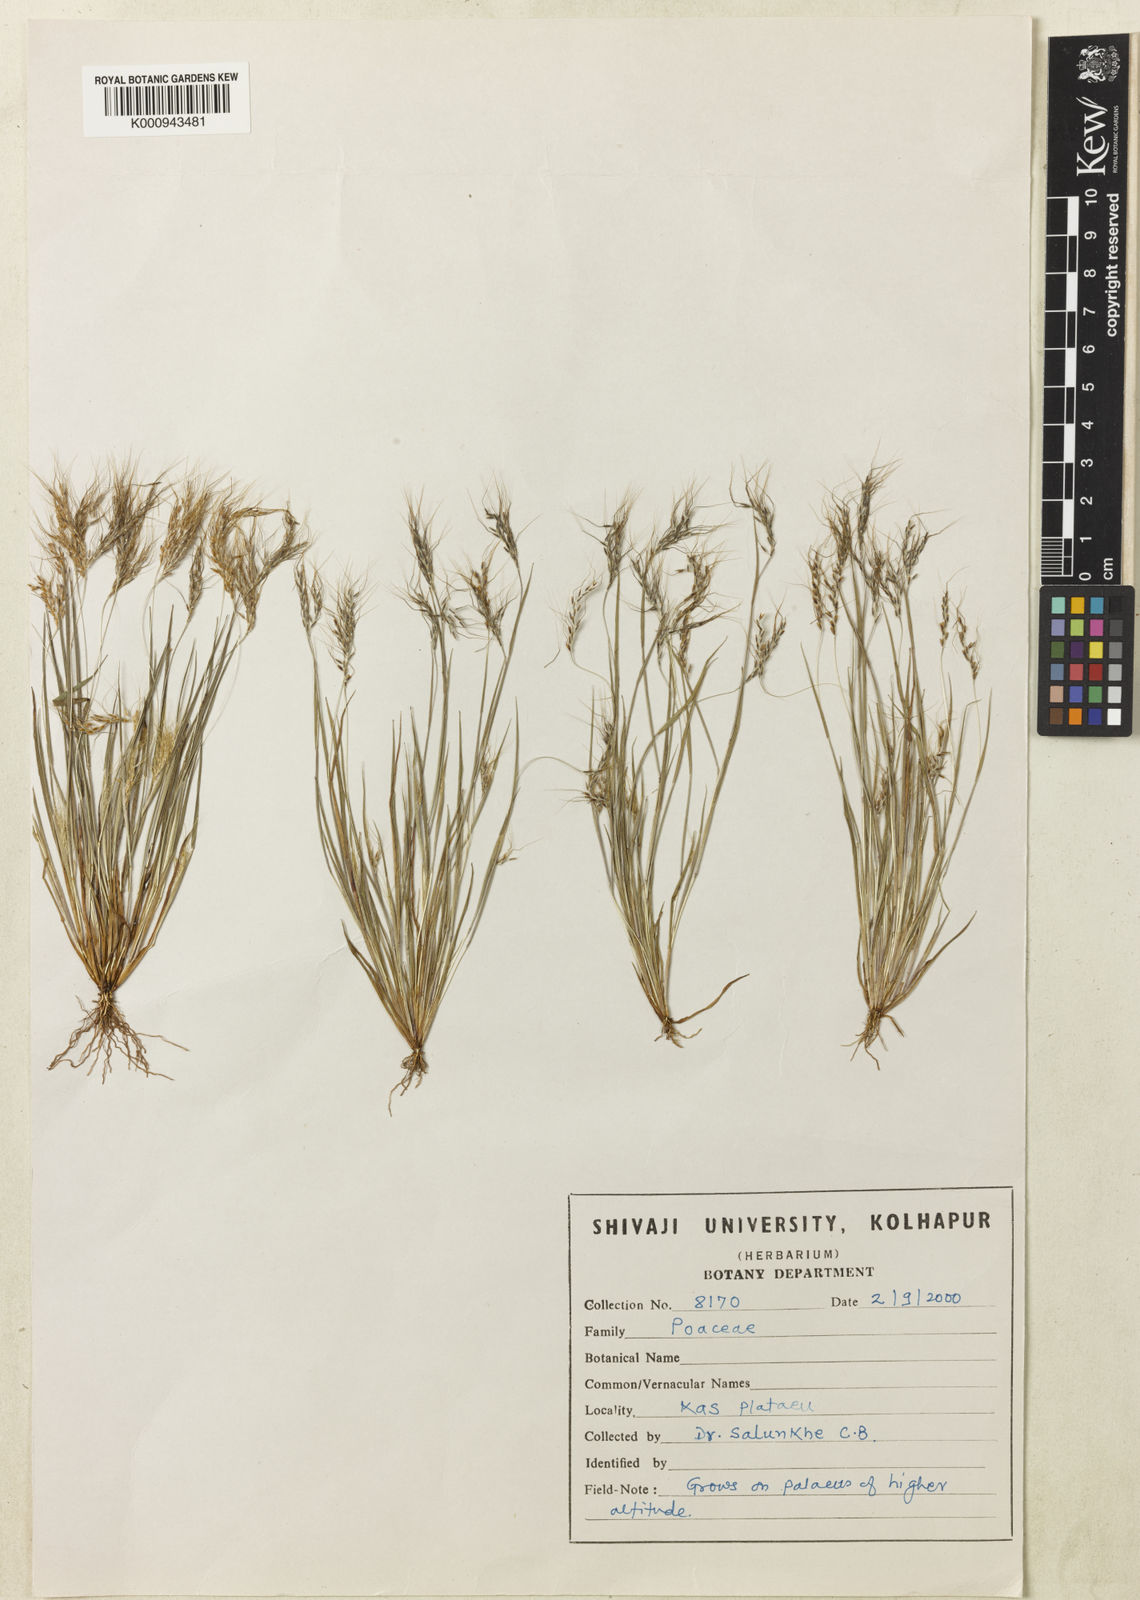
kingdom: Plantae
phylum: Tracheophyta
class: Liliopsida
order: Poales
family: Poaceae
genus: Eulalia
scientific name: Eulalia shrirangii
